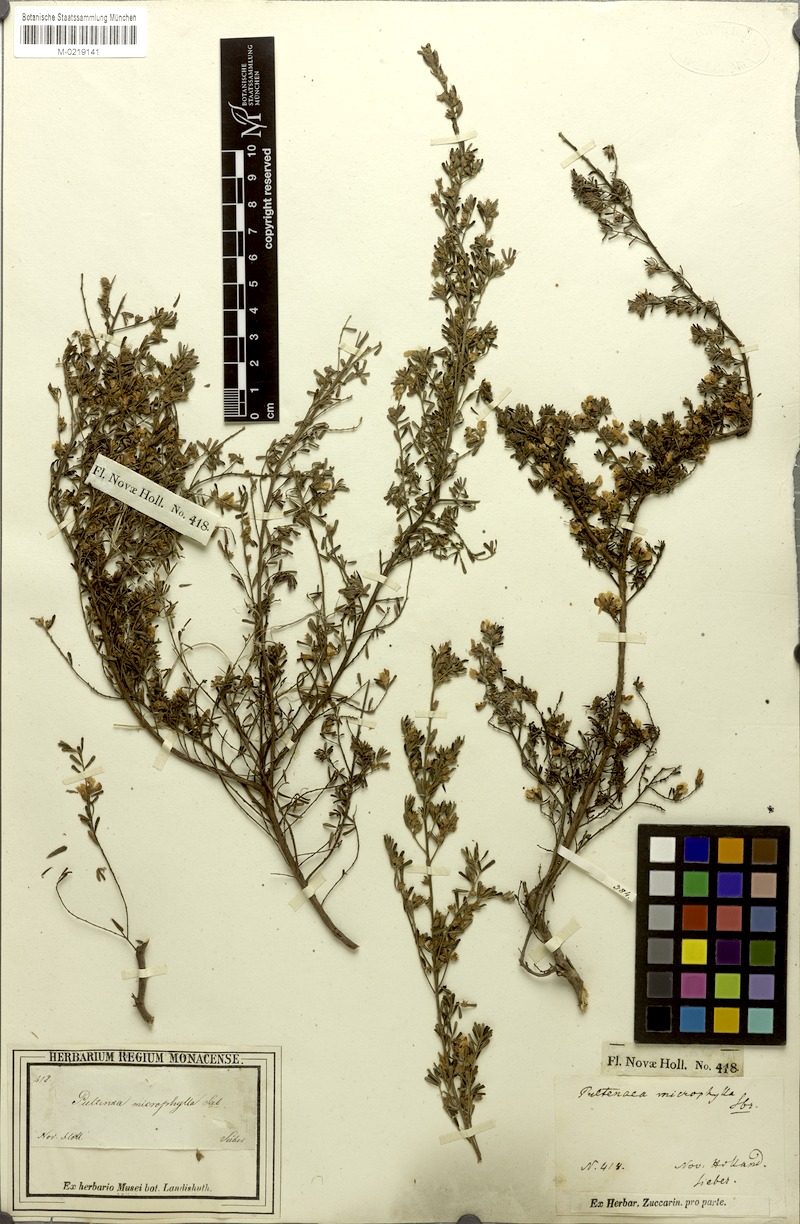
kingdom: Plantae
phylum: Tracheophyta
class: Magnoliopsida
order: Fabales
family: Fabaceae
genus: Pultenaea
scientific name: Pultenaea microphylla
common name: Spreading bush-pea
